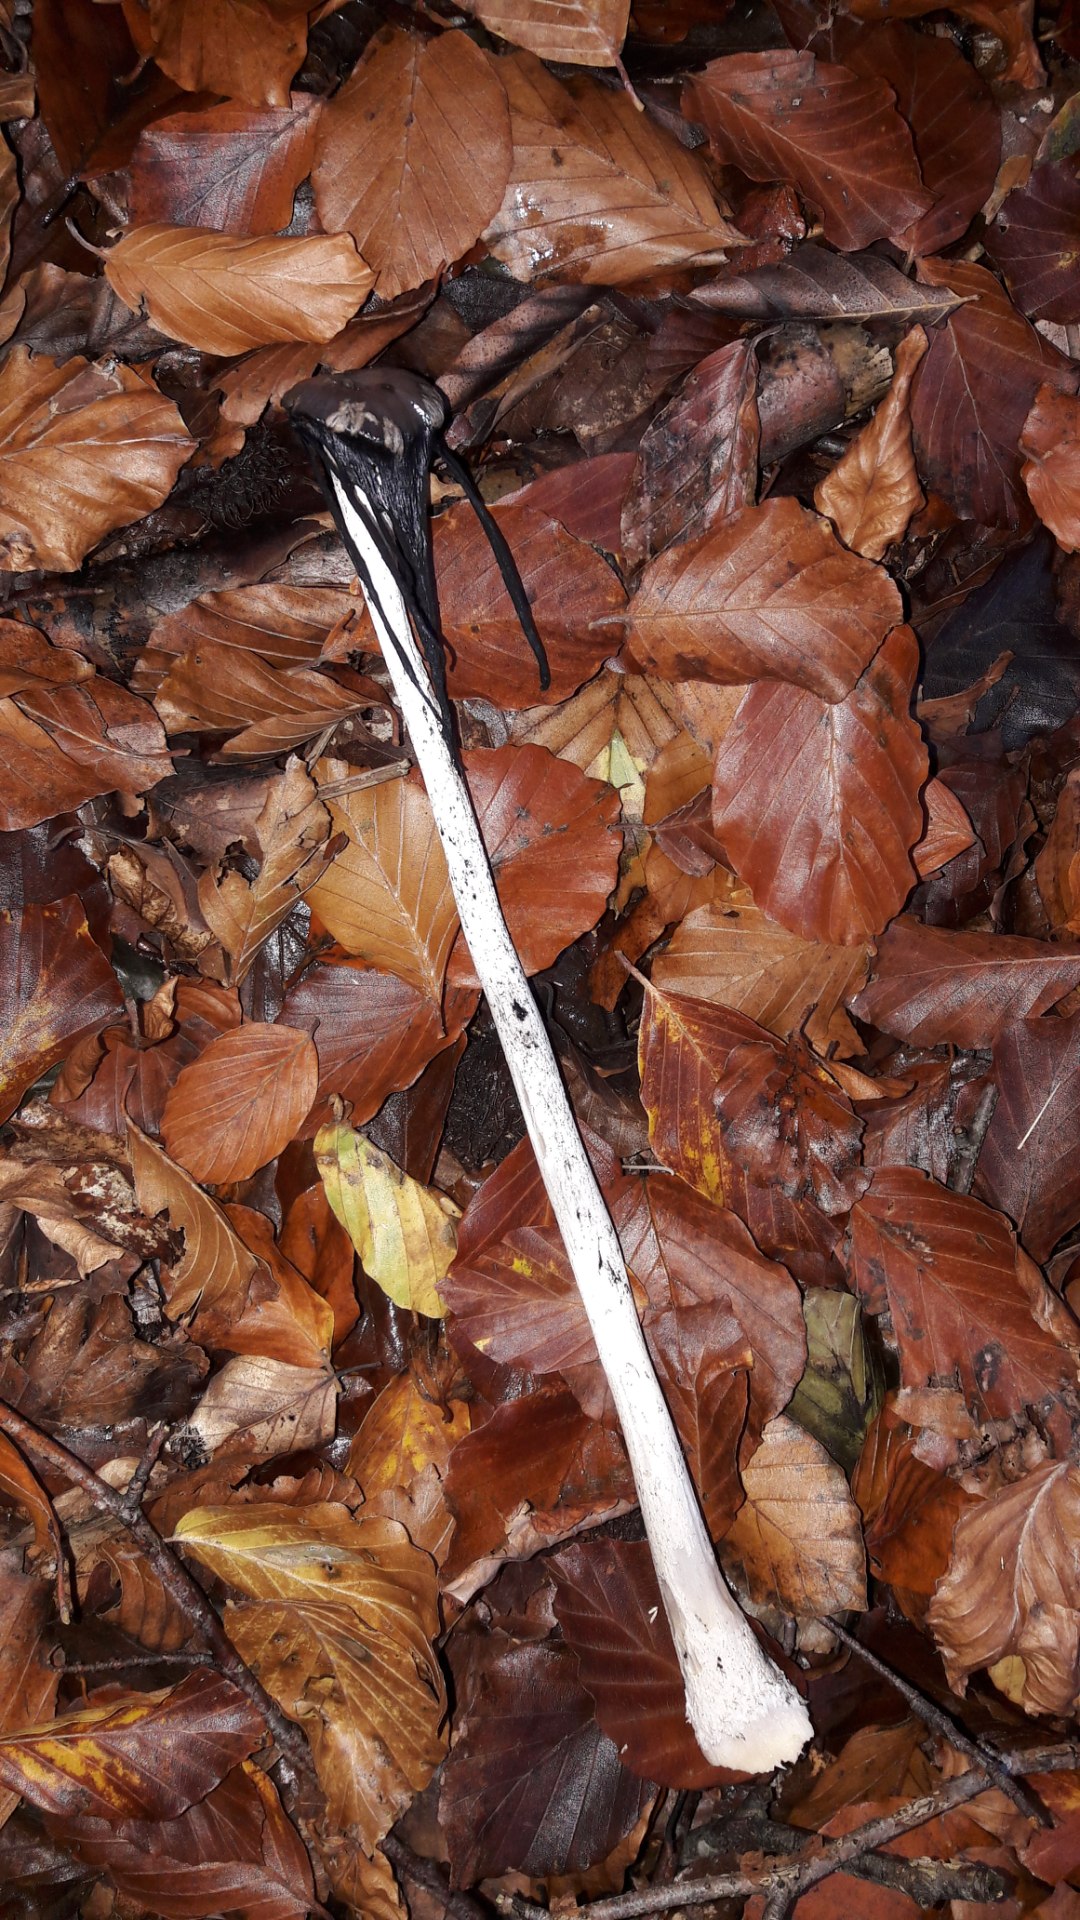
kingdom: Fungi
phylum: Basidiomycota
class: Agaricomycetes
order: Agaricales
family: Psathyrellaceae
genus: Coprinopsis
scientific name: Coprinopsis picacea
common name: skade-blækhat
